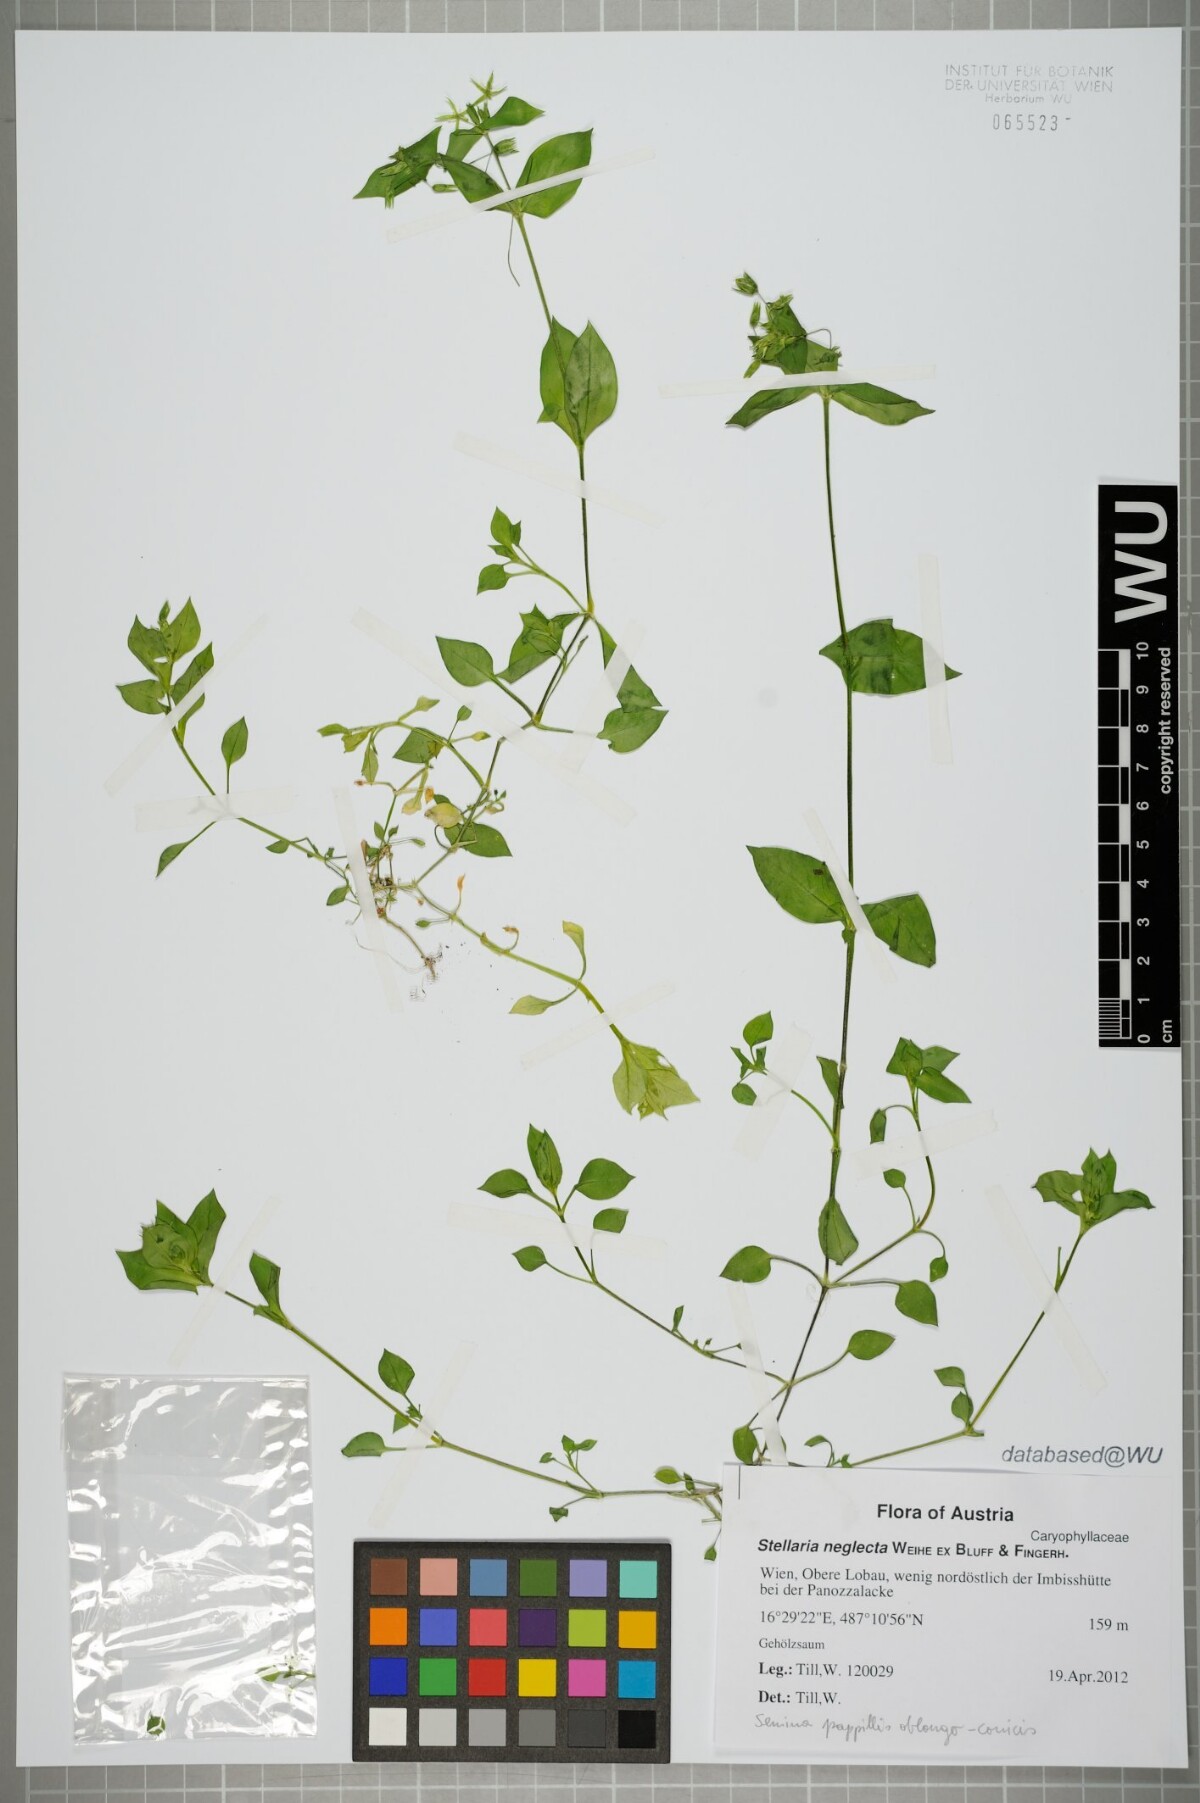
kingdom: Plantae
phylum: Tracheophyta
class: Magnoliopsida
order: Caryophyllales
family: Caryophyllaceae
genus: Stellaria
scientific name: Stellaria neglecta
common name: Greater chickweed
